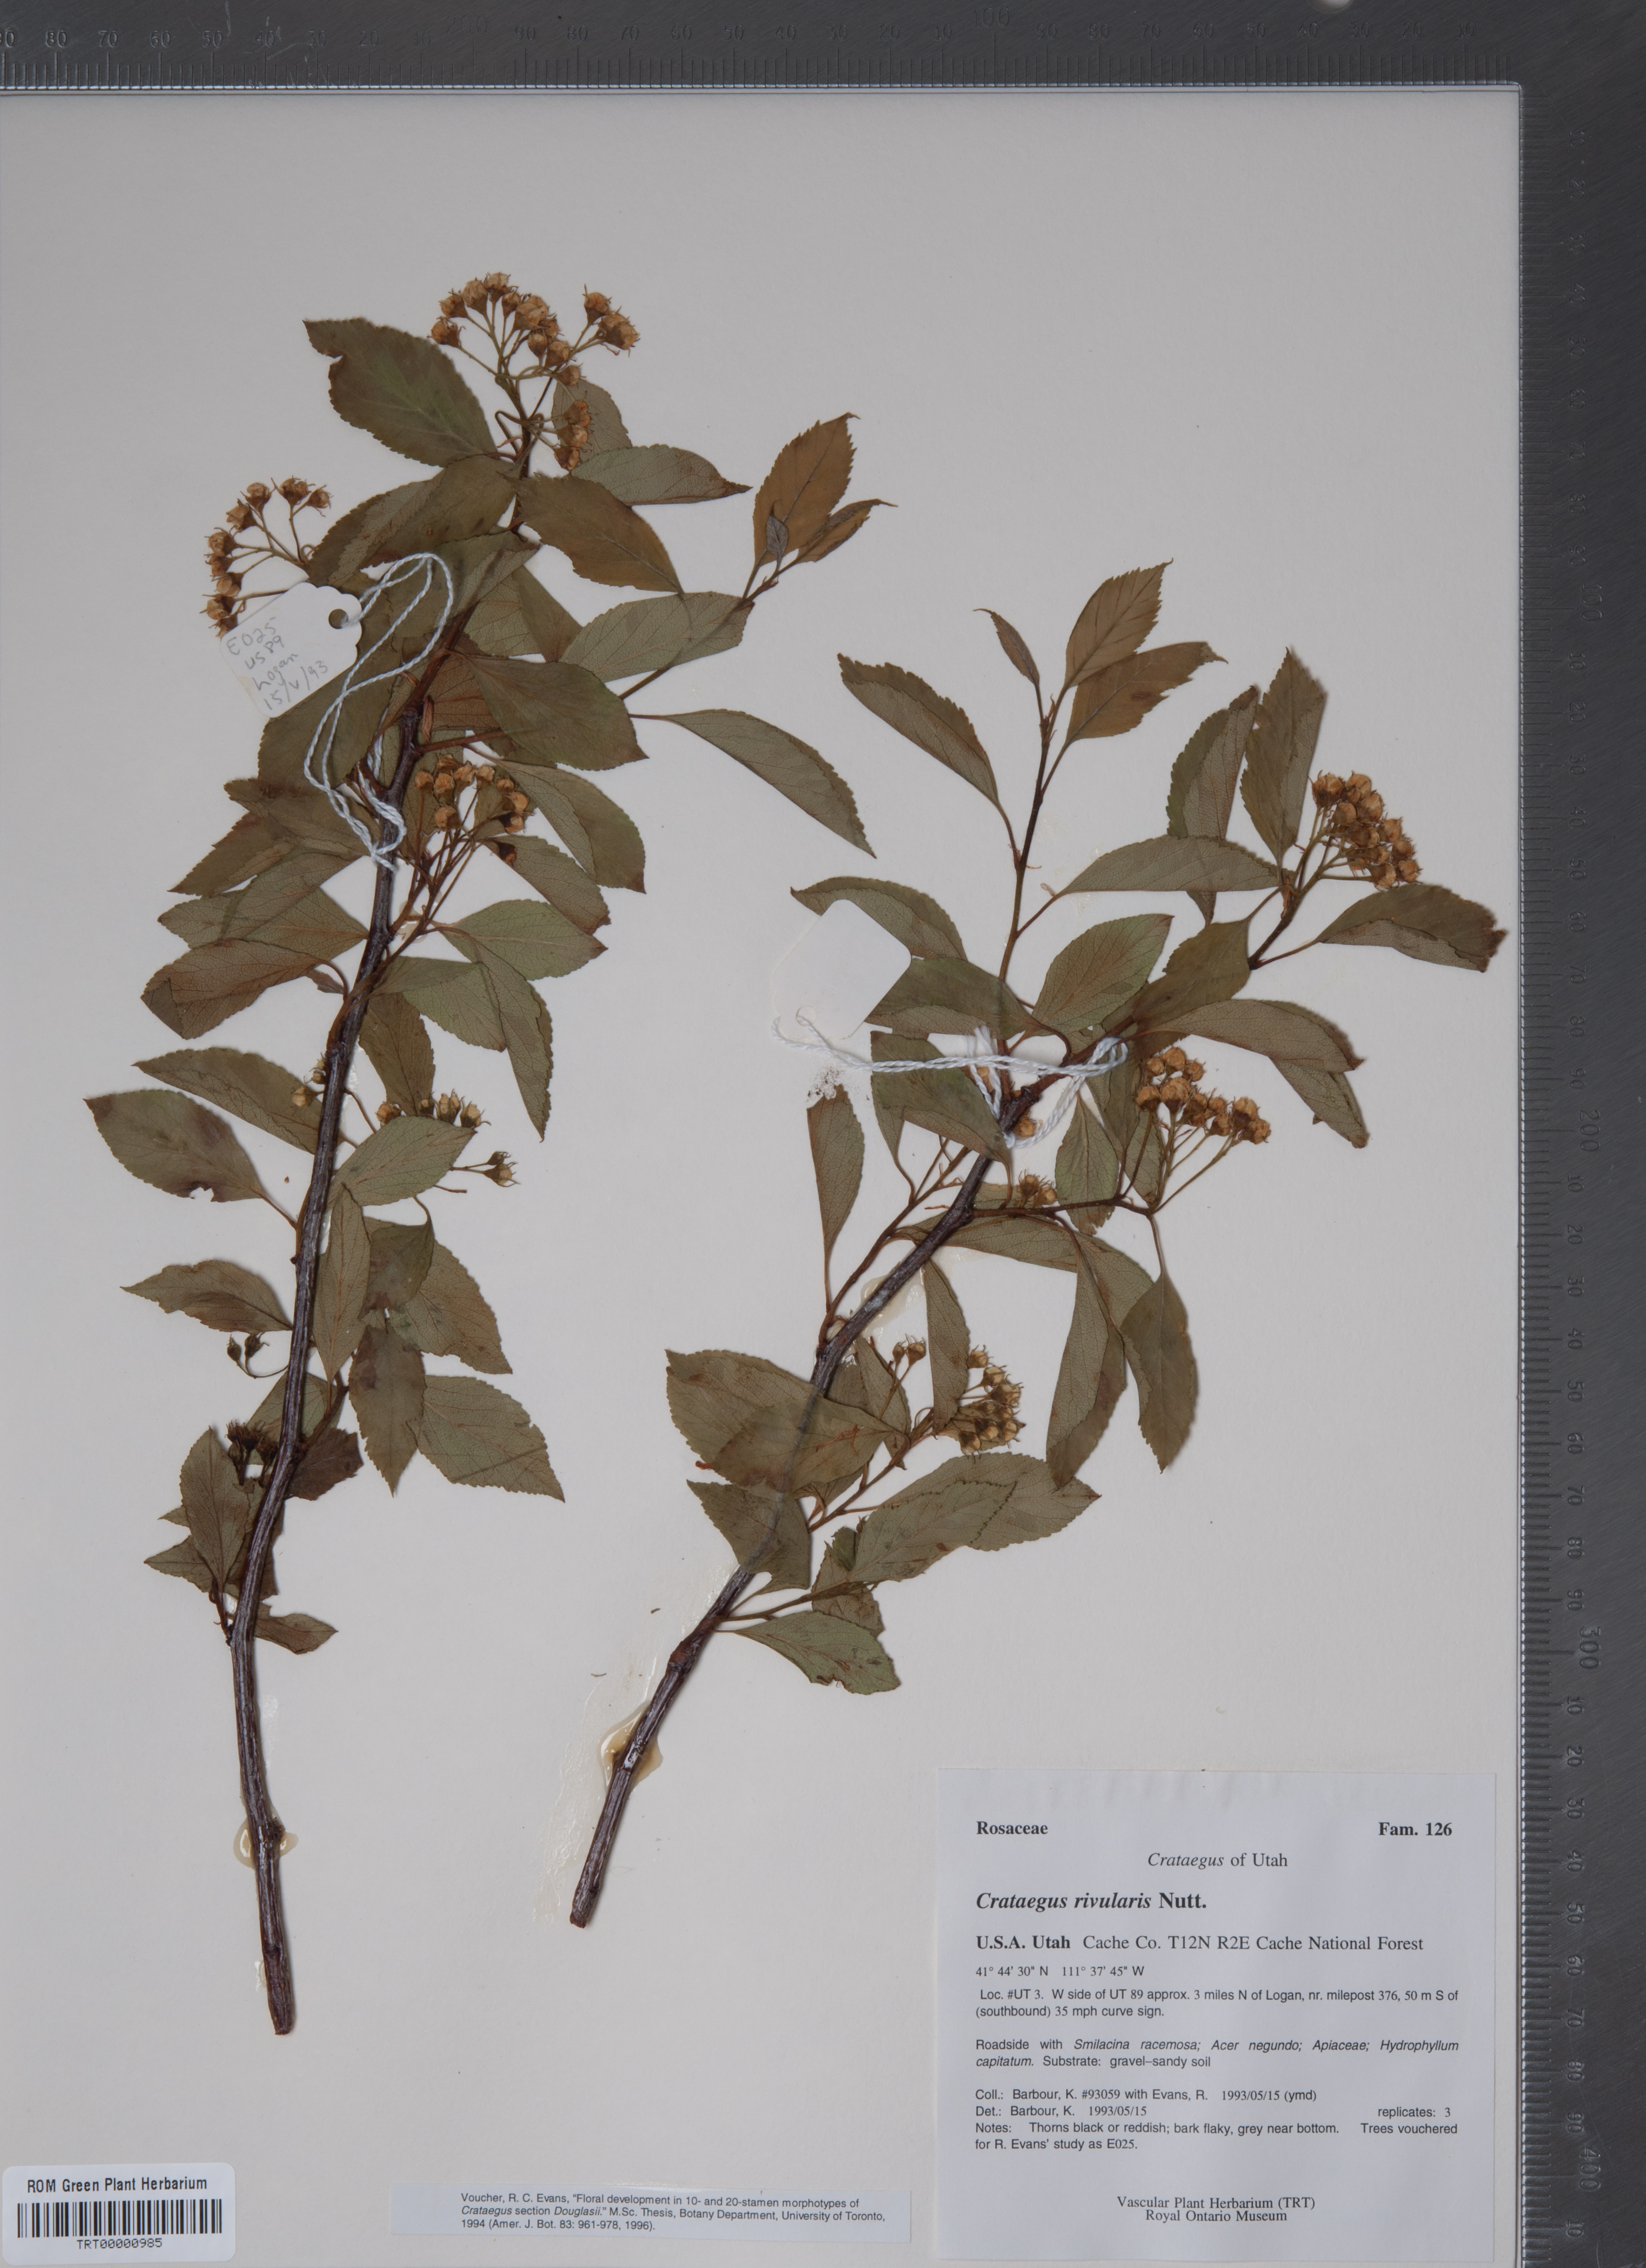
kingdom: Plantae
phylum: Tracheophyta
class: Magnoliopsida
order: Rosales
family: Rosaceae
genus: Crataegus
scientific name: Crataegus rivularis
